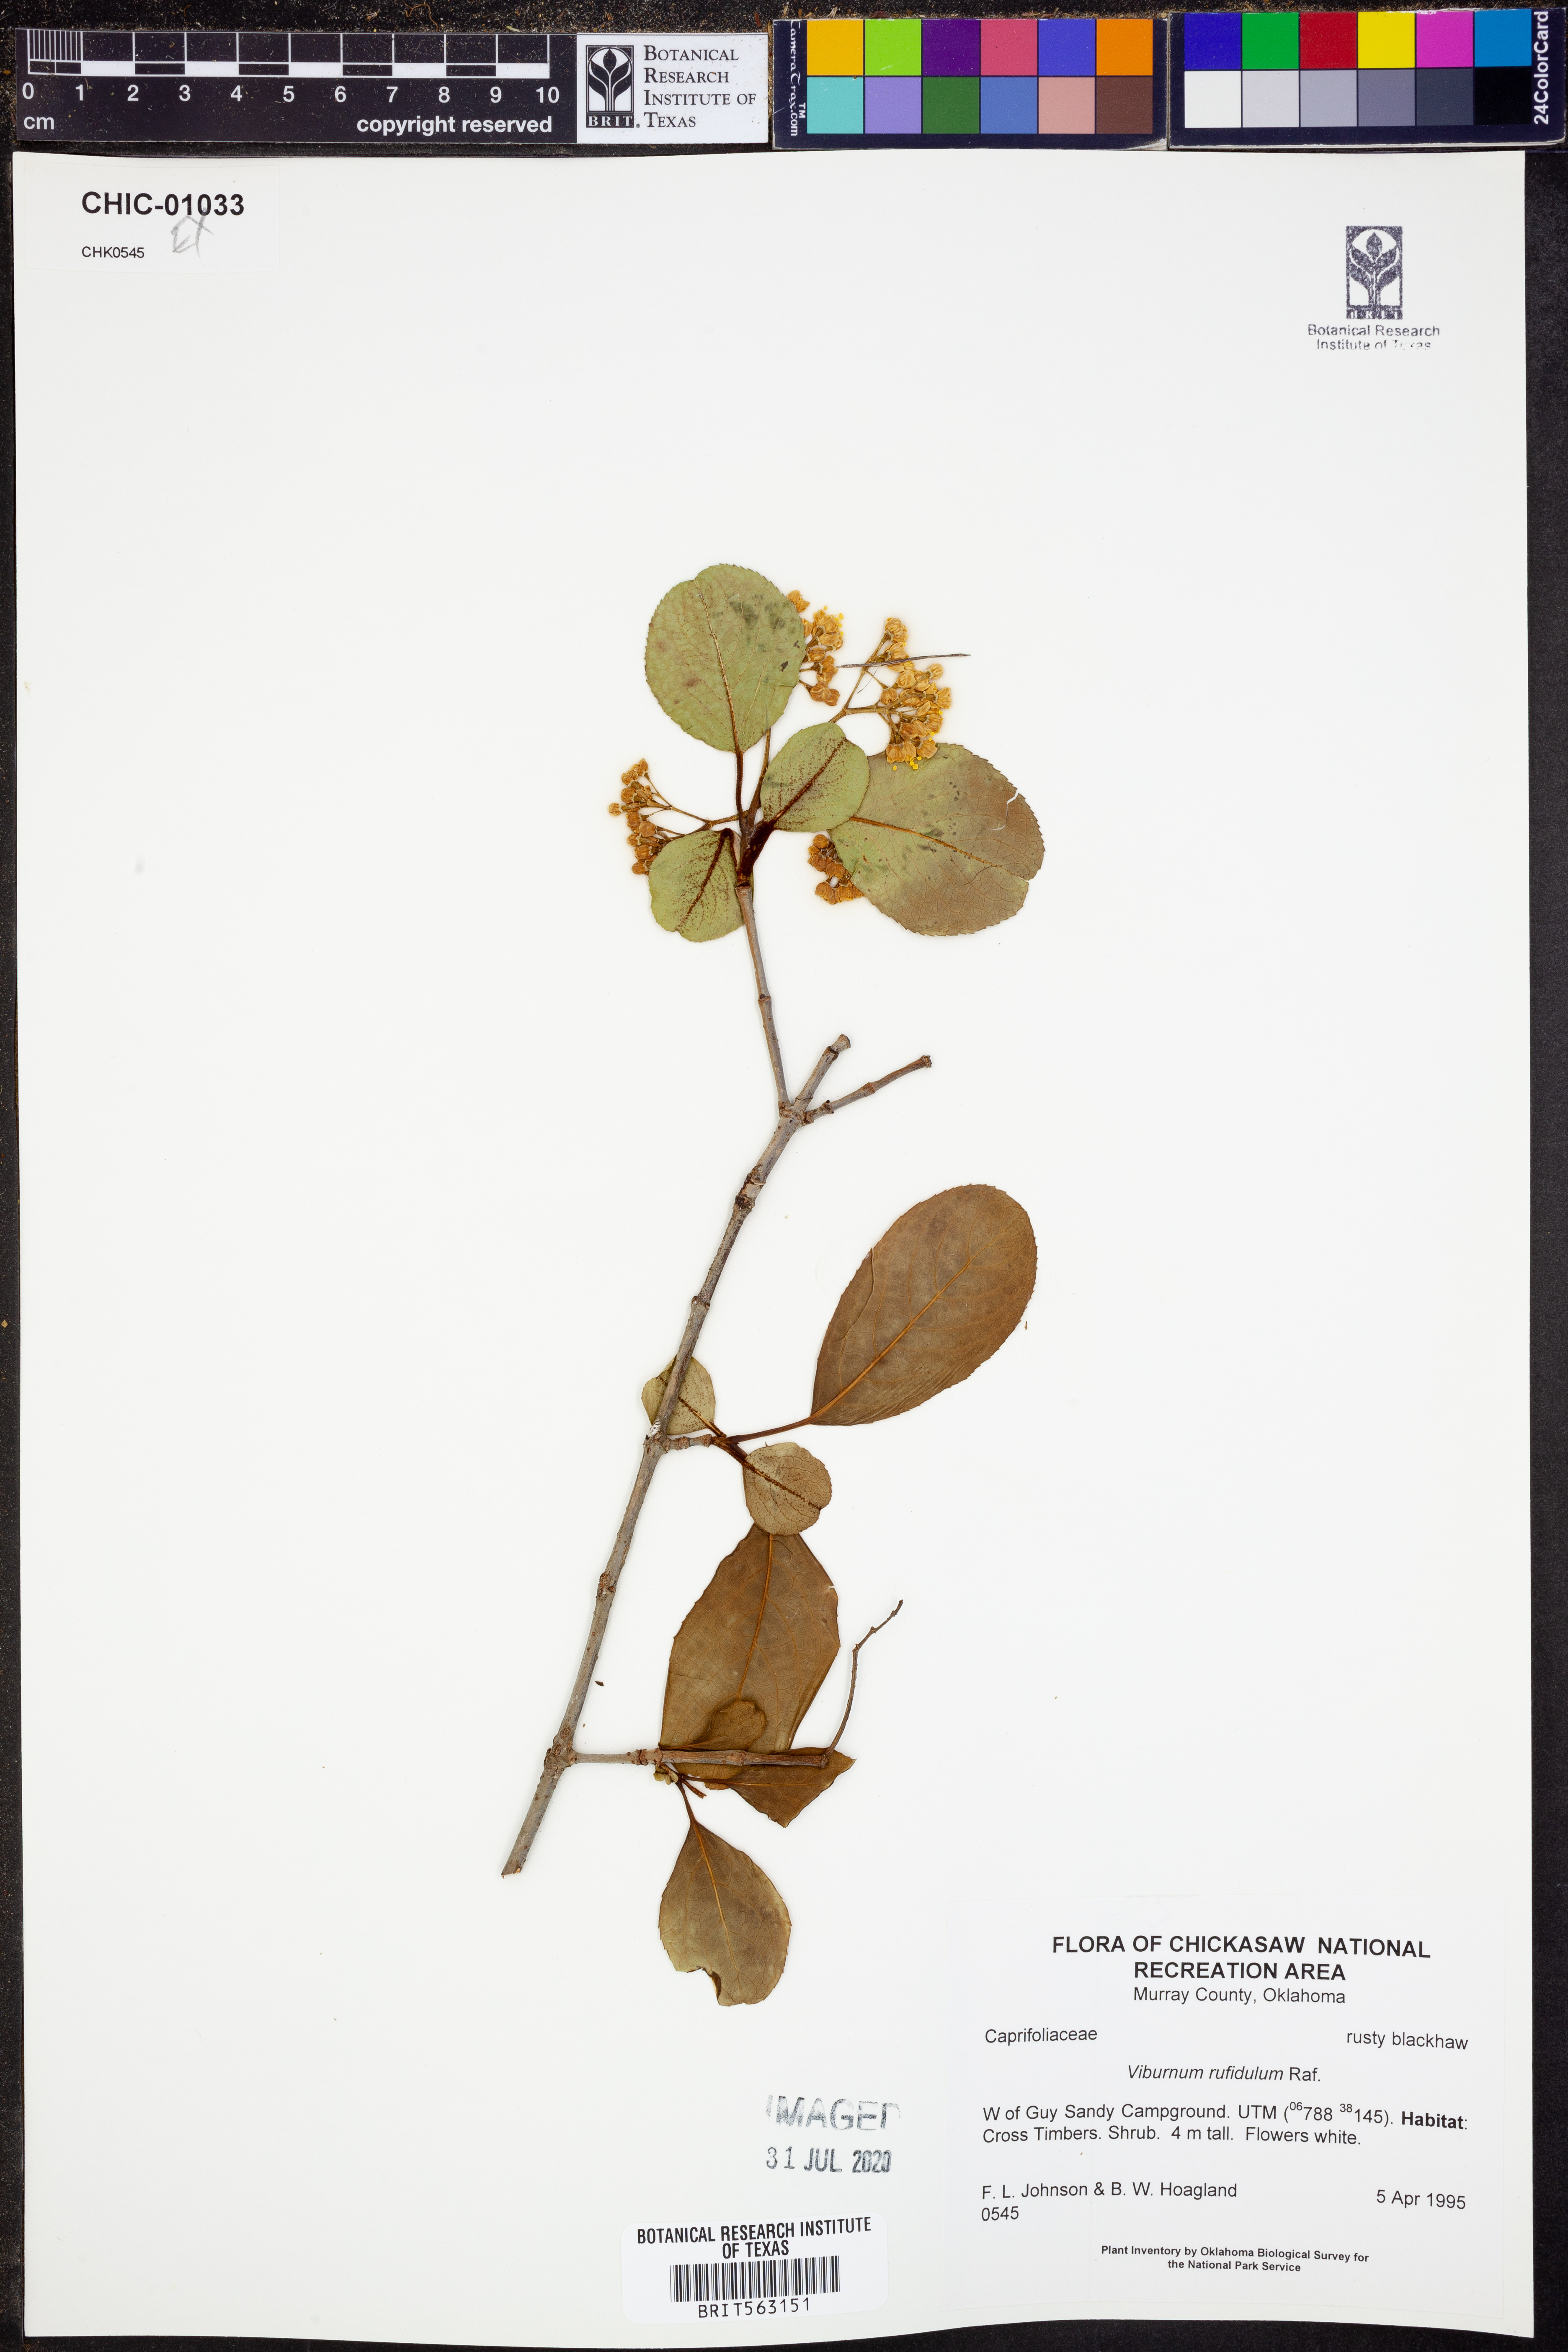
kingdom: Plantae
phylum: Tracheophyta
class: Magnoliopsida
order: Dipsacales
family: Viburnaceae
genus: Viburnum
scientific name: Viburnum rufidulum
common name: Blue haw
